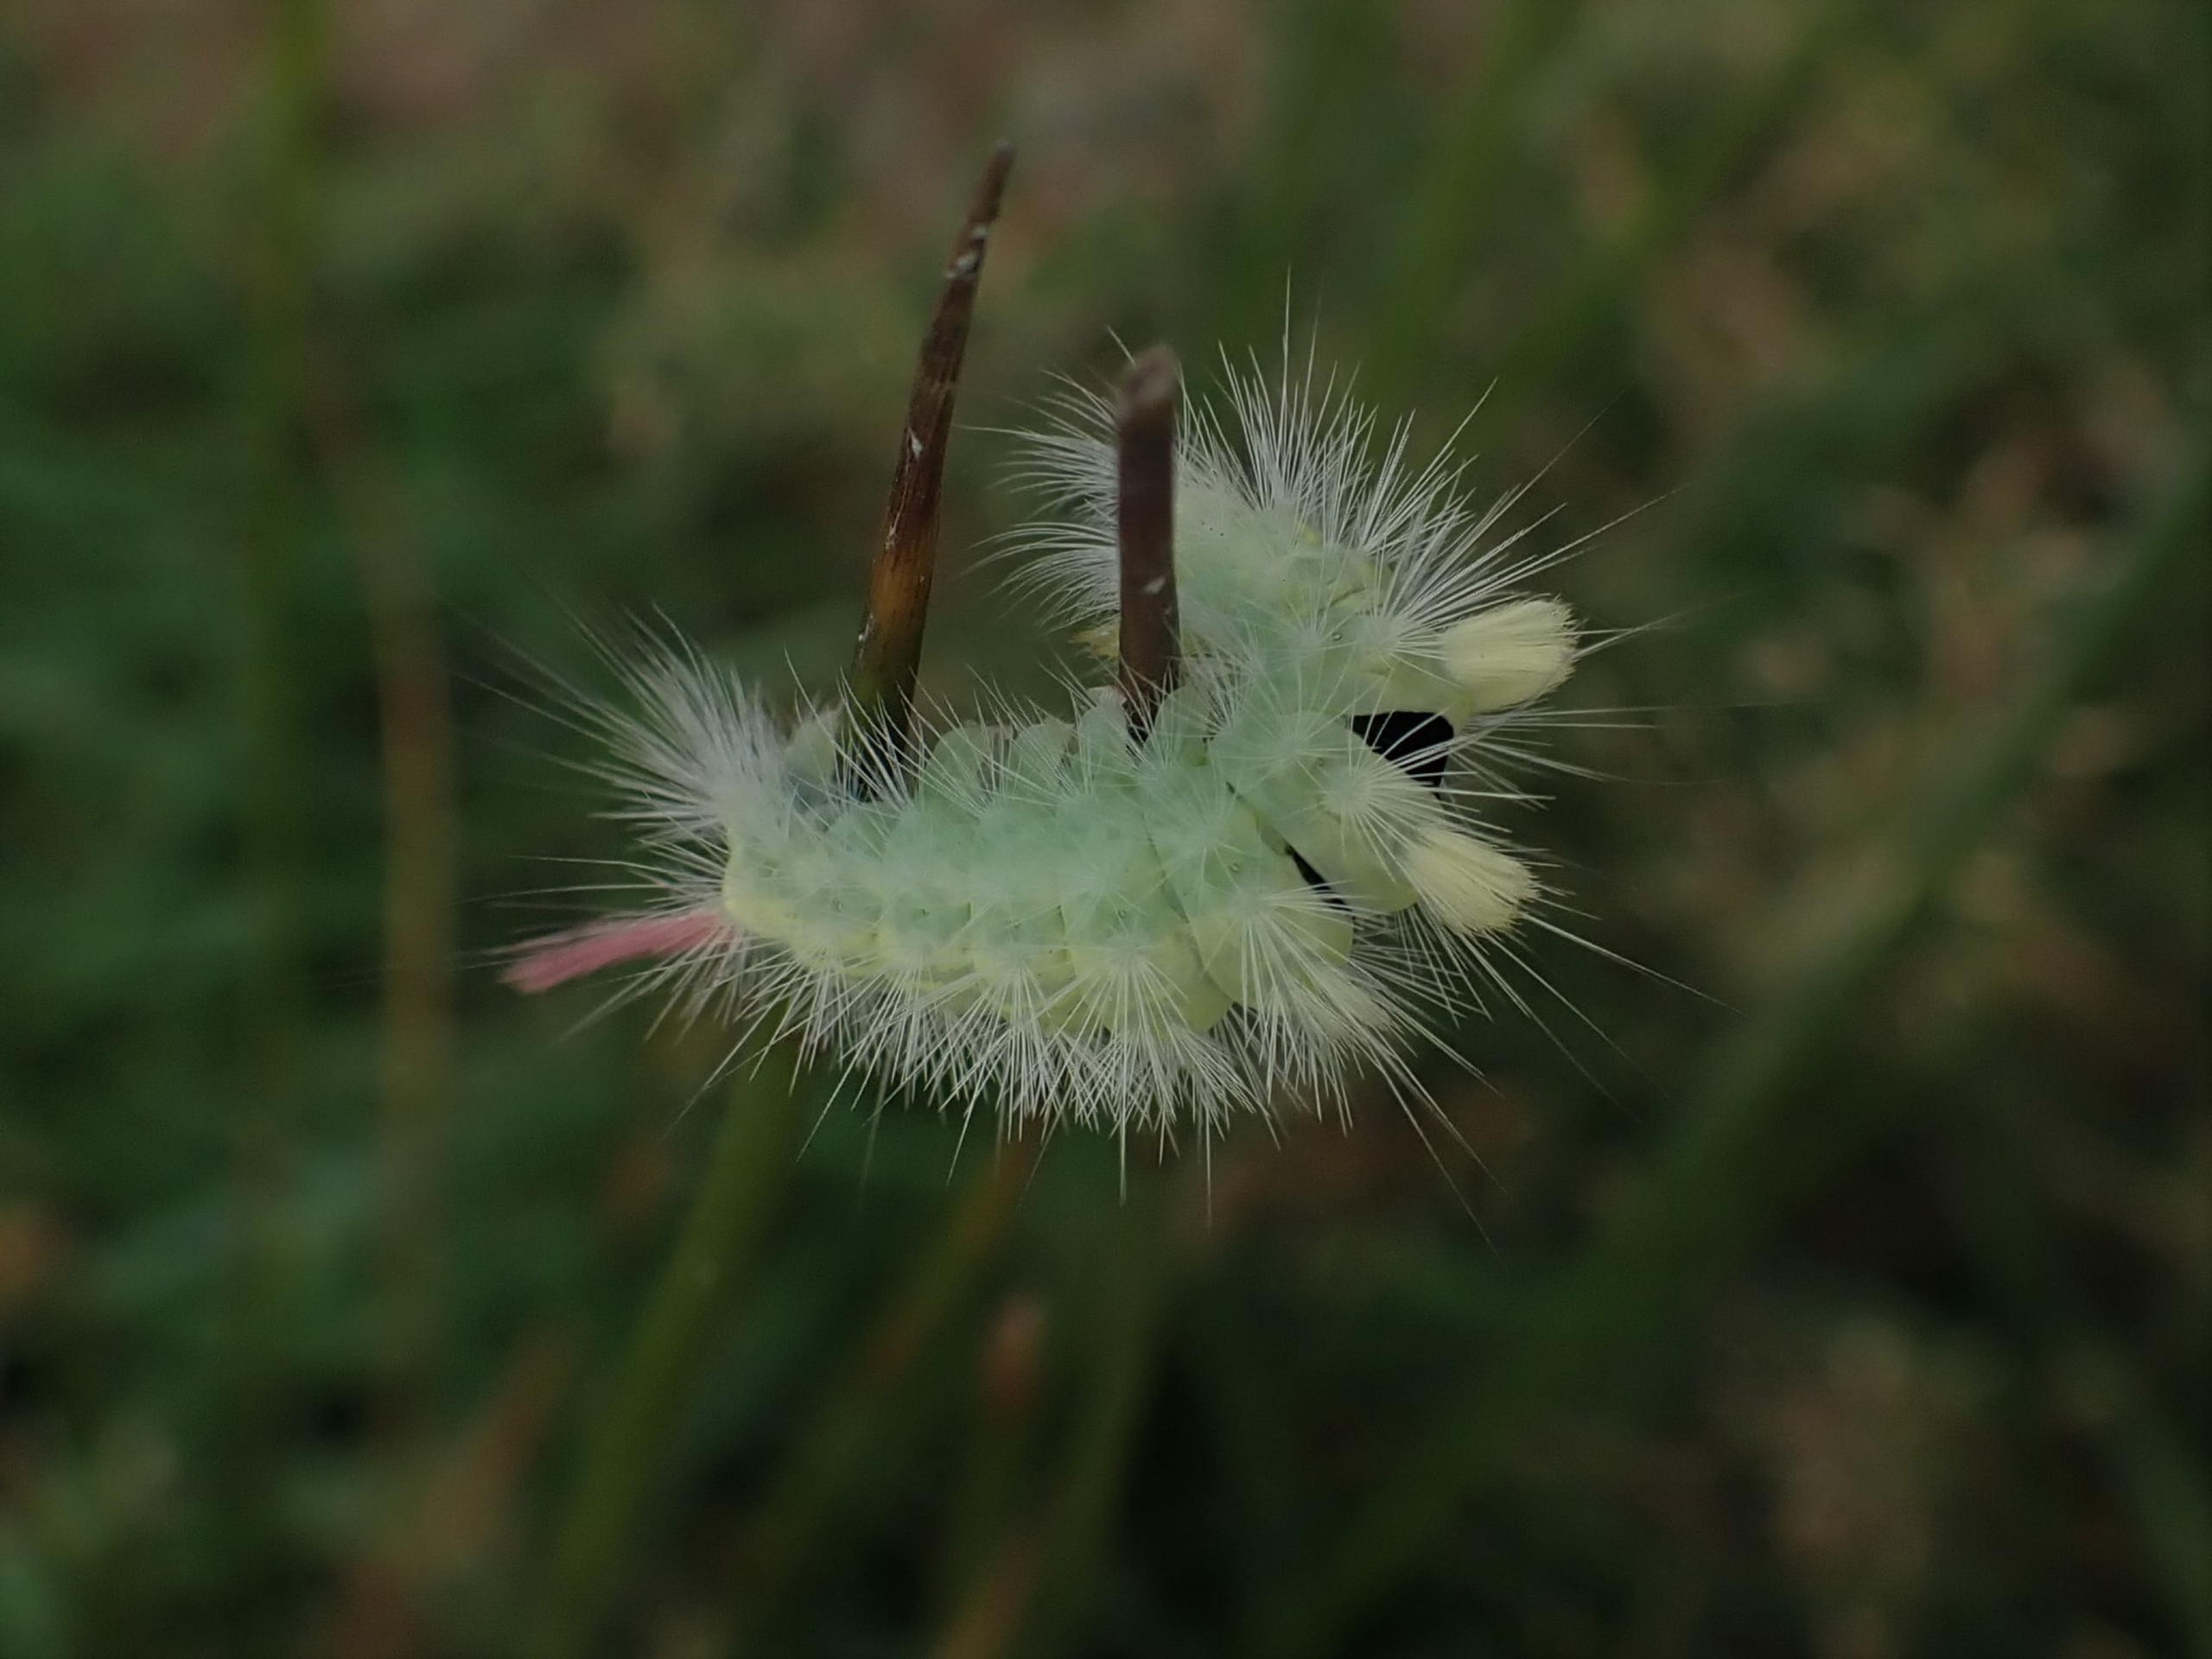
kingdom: Animalia
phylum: Arthropoda
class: Insecta
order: Lepidoptera
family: Erebidae
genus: Calliteara
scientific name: Calliteara pudibunda
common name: Bøgenonne
